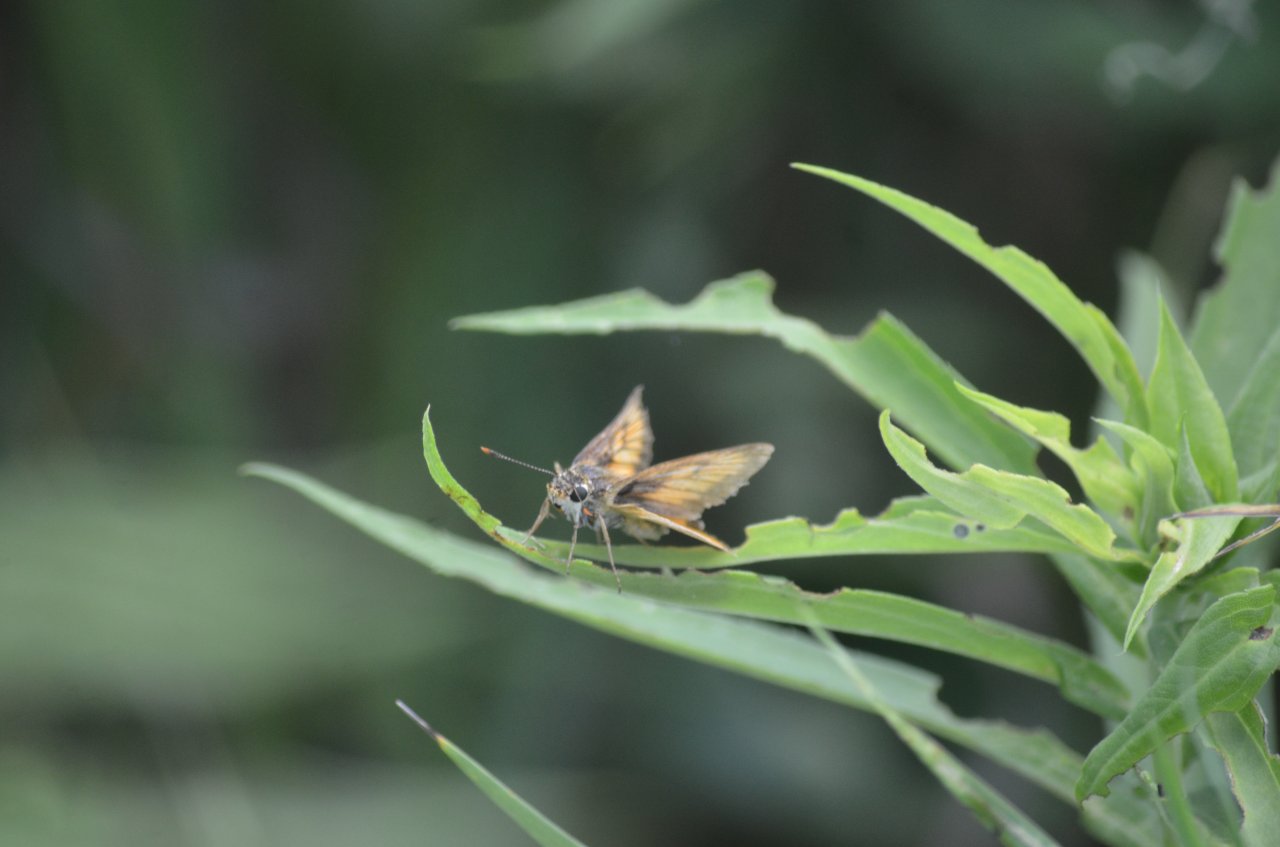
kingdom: Animalia
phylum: Arthropoda
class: Insecta
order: Lepidoptera
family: Hesperiidae
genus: Atrytone
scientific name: Atrytone delaware
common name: Delaware Skipper
